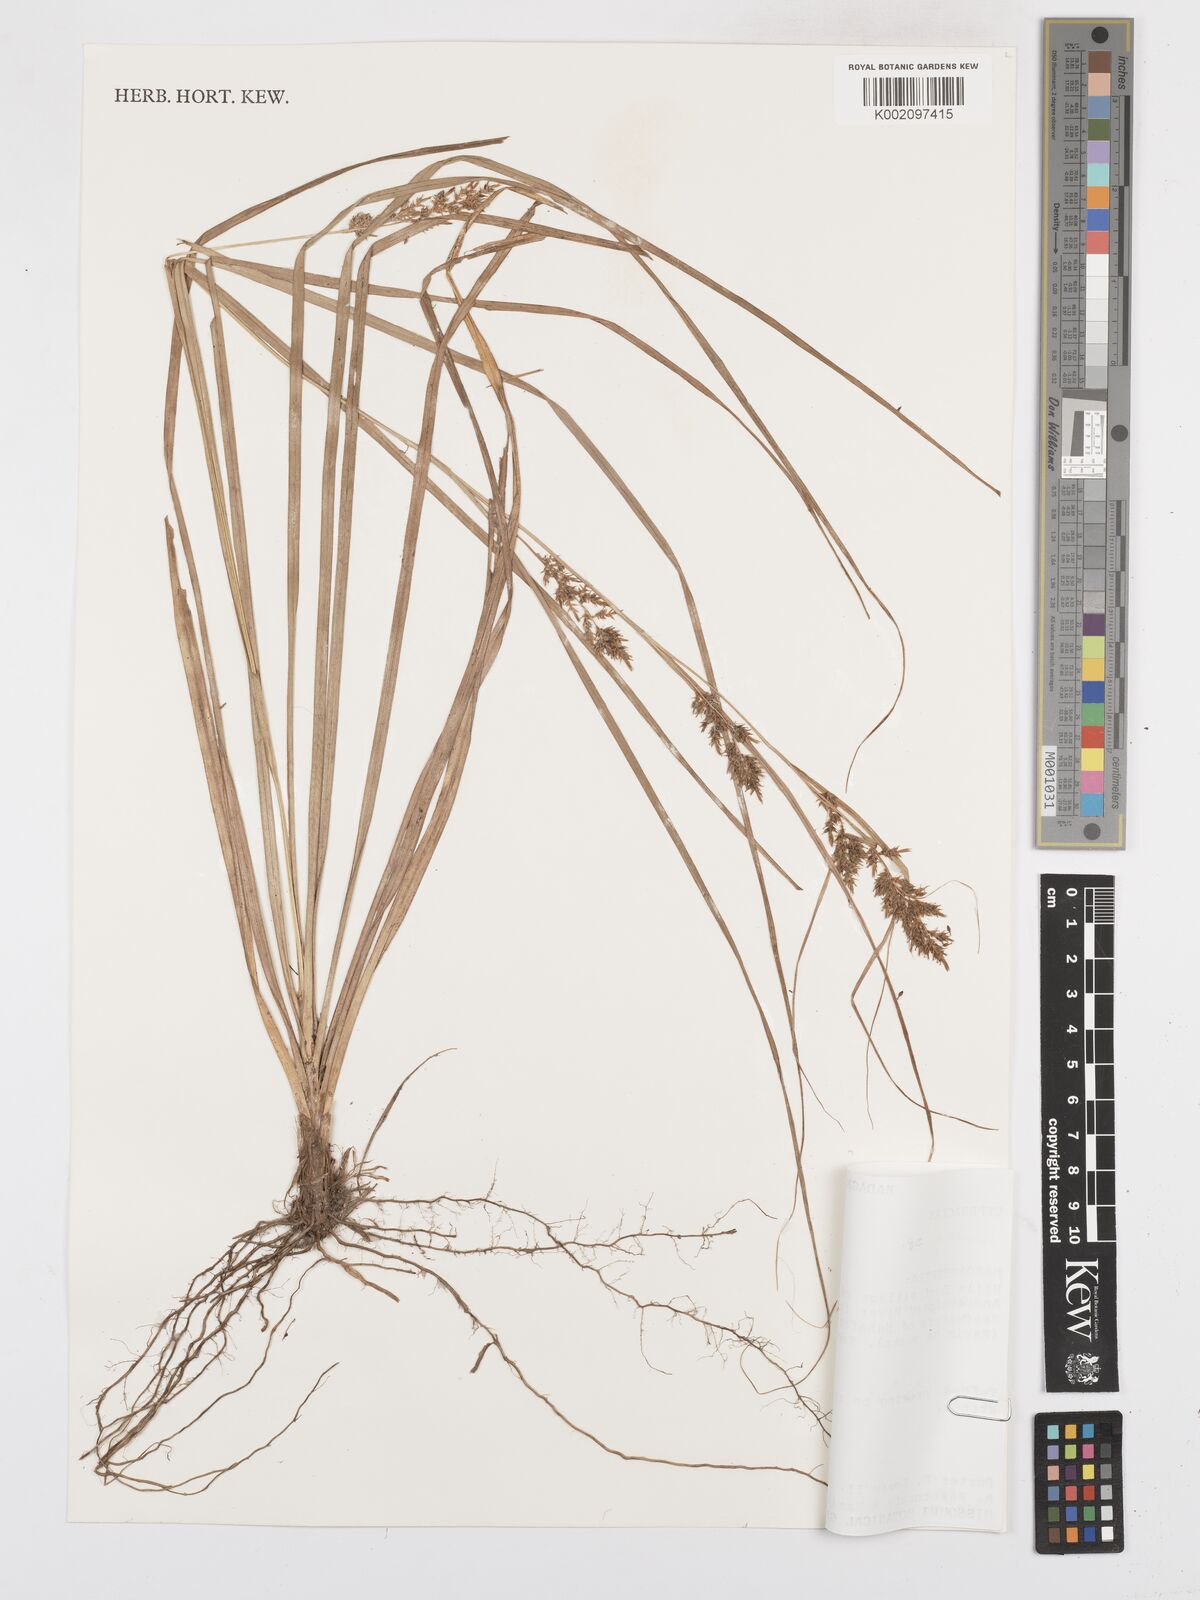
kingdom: Plantae
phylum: Tracheophyta
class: Liliopsida
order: Poales
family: Cyperaceae
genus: Carex
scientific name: Carex
